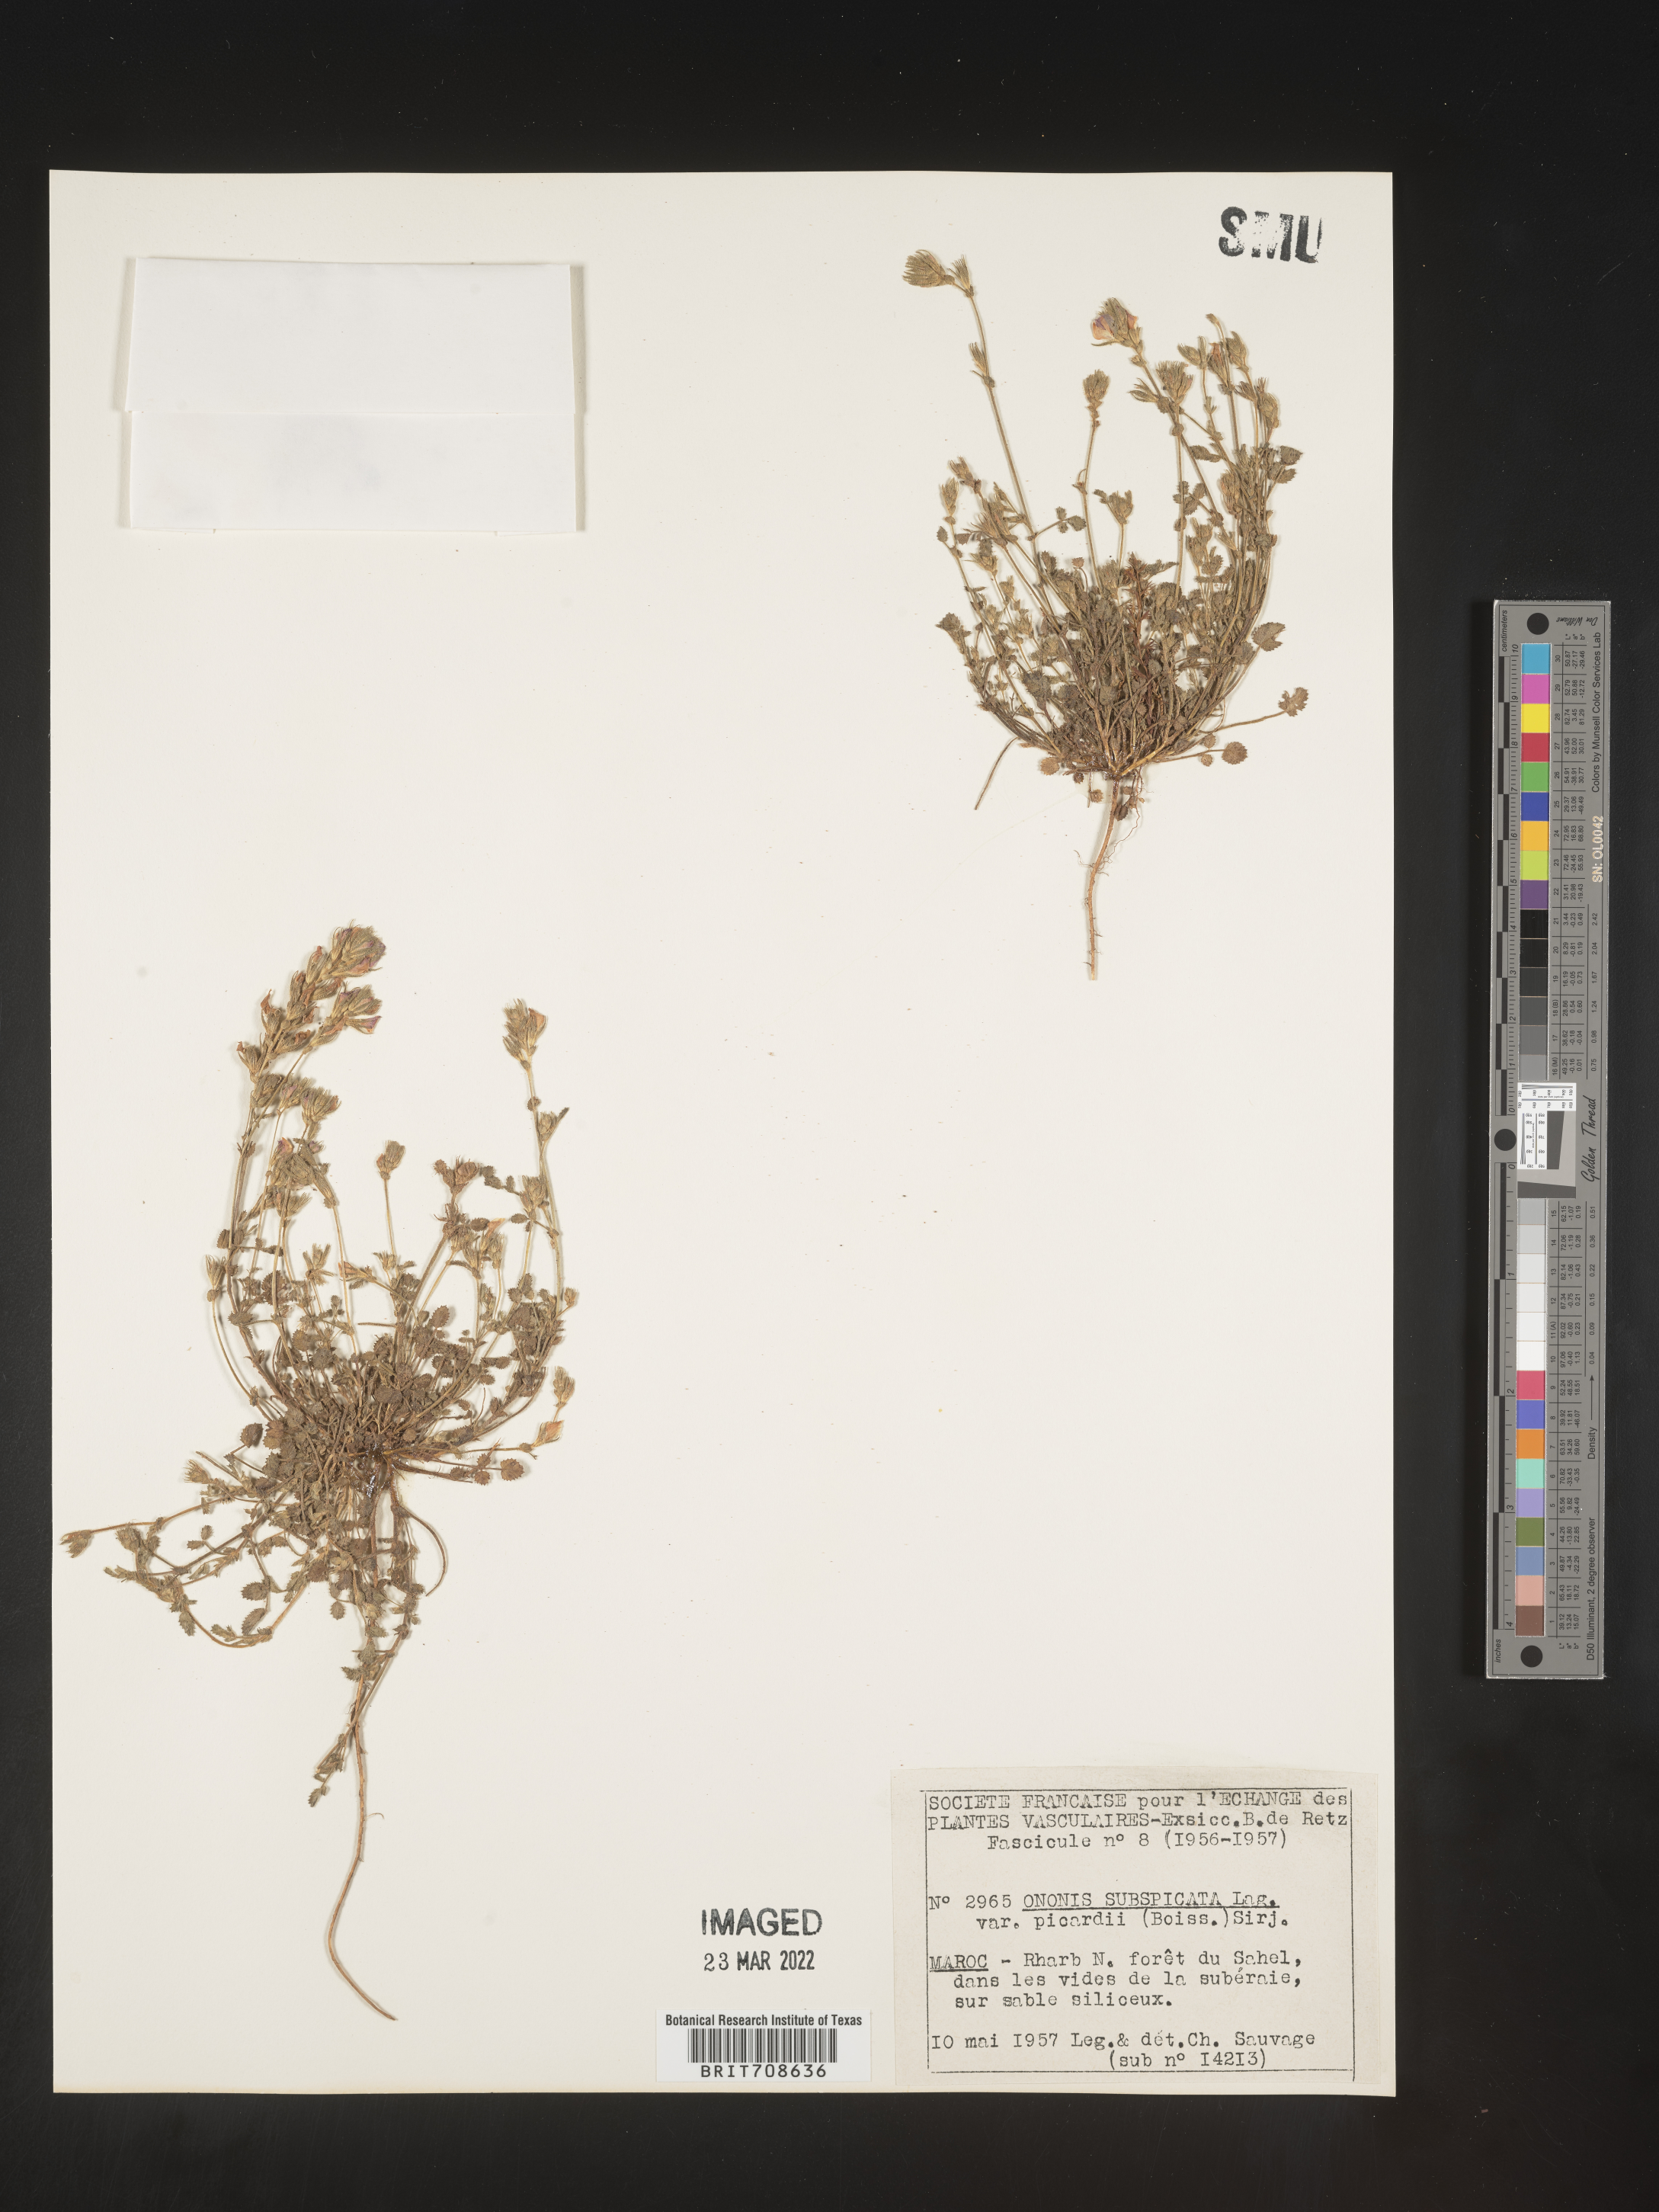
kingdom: Plantae
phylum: Tracheophyta
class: Magnoliopsida
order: Fabales
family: Fabaceae
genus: Ononis
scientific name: Ononis
